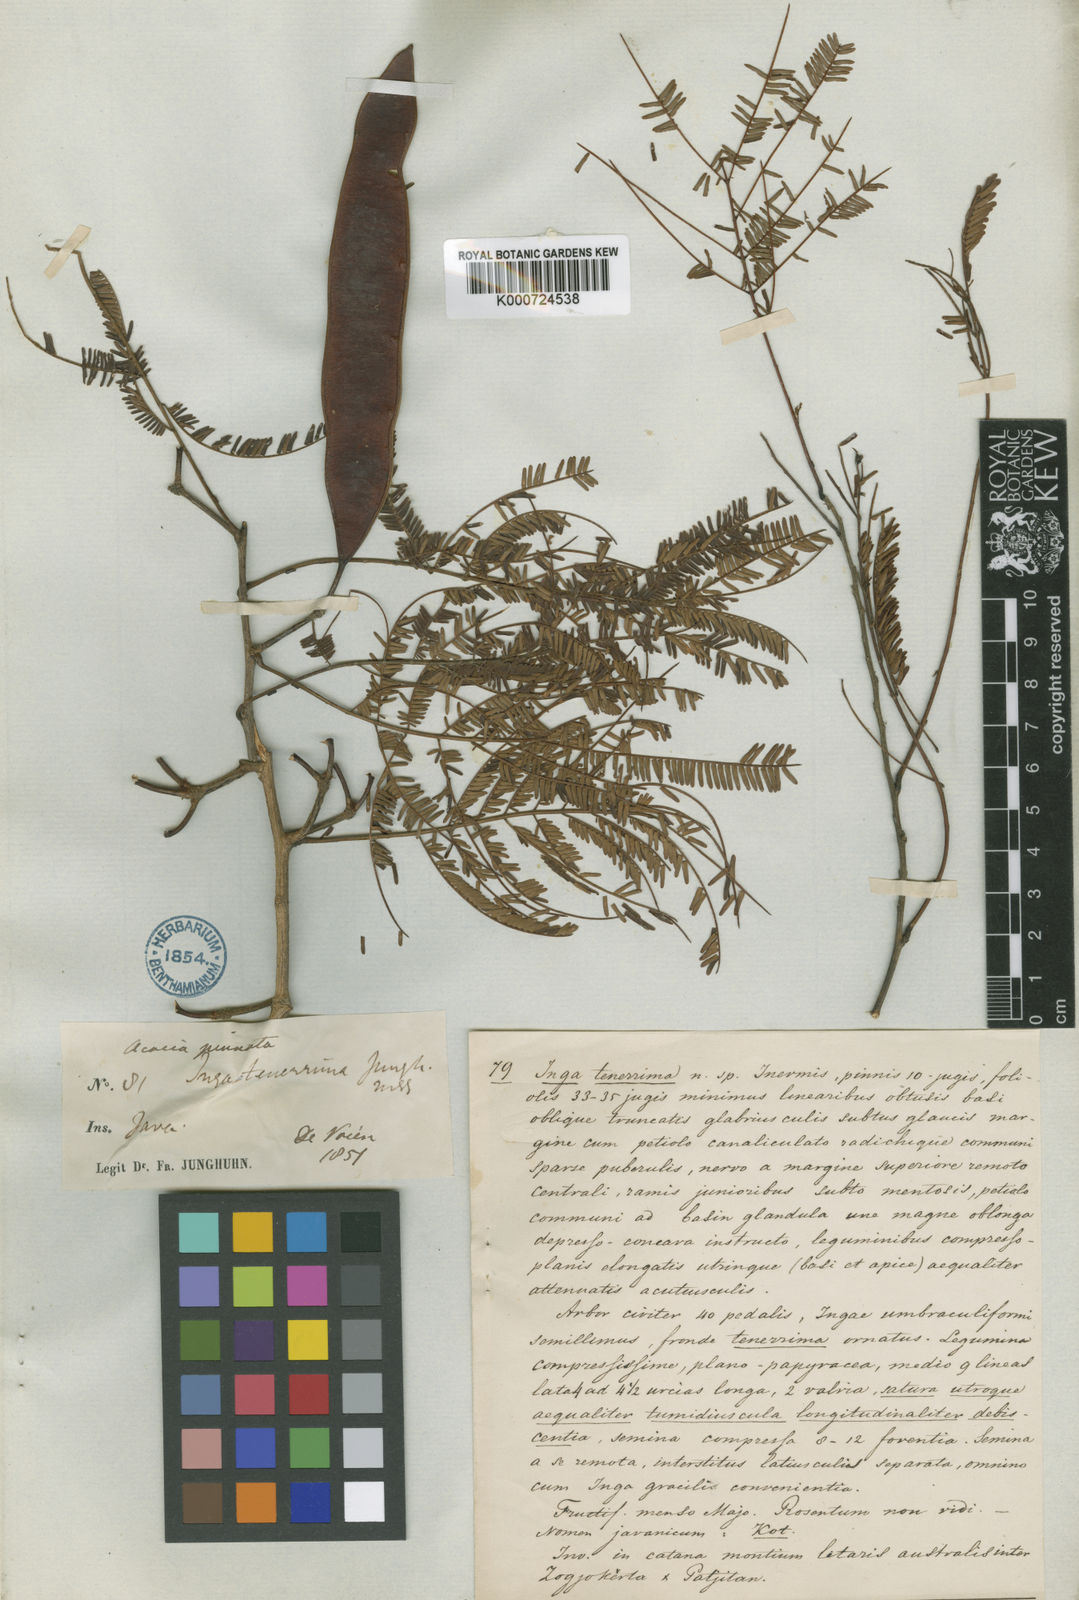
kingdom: Plantae
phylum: Tracheophyta
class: Magnoliopsida
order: Fabales
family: Fabaceae
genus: Senegalia
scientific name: Senegalia megaladena
